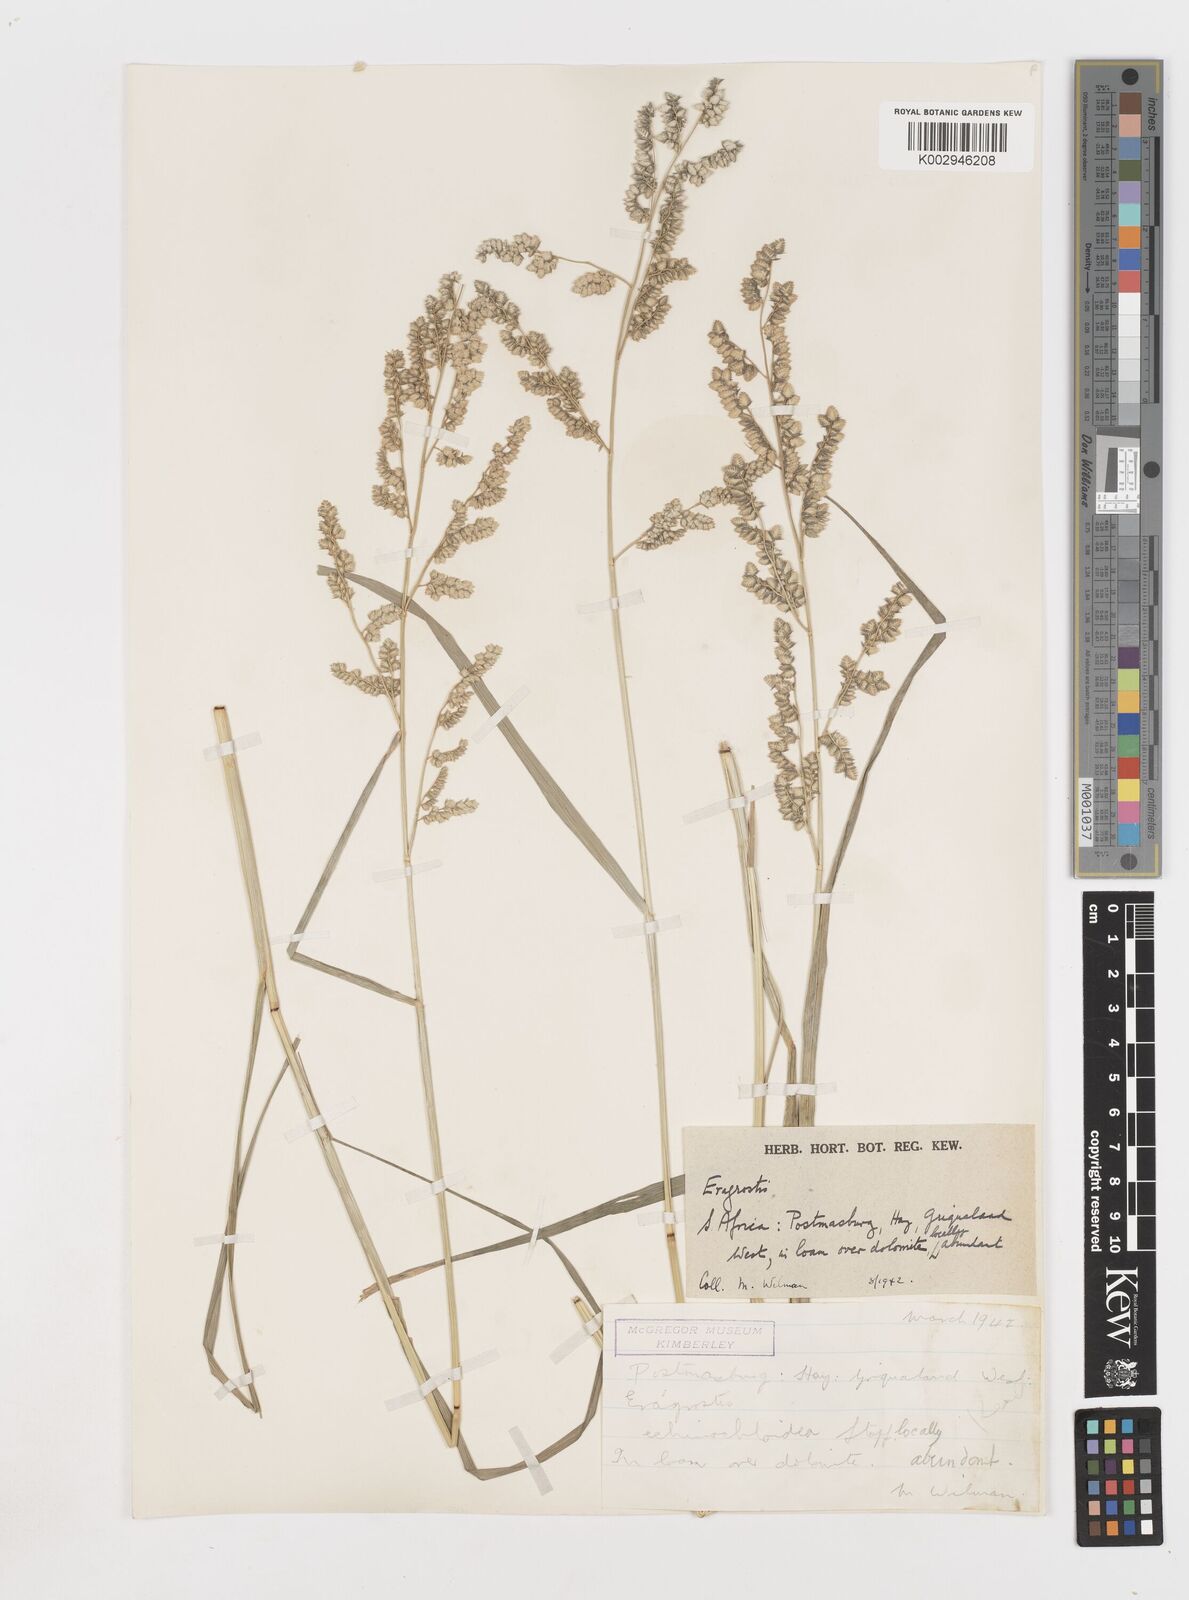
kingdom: Plantae
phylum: Tracheophyta
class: Liliopsida
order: Poales
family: Poaceae
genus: Eragrostis
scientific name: Eragrostis echinochloidea
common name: African lovegrass
